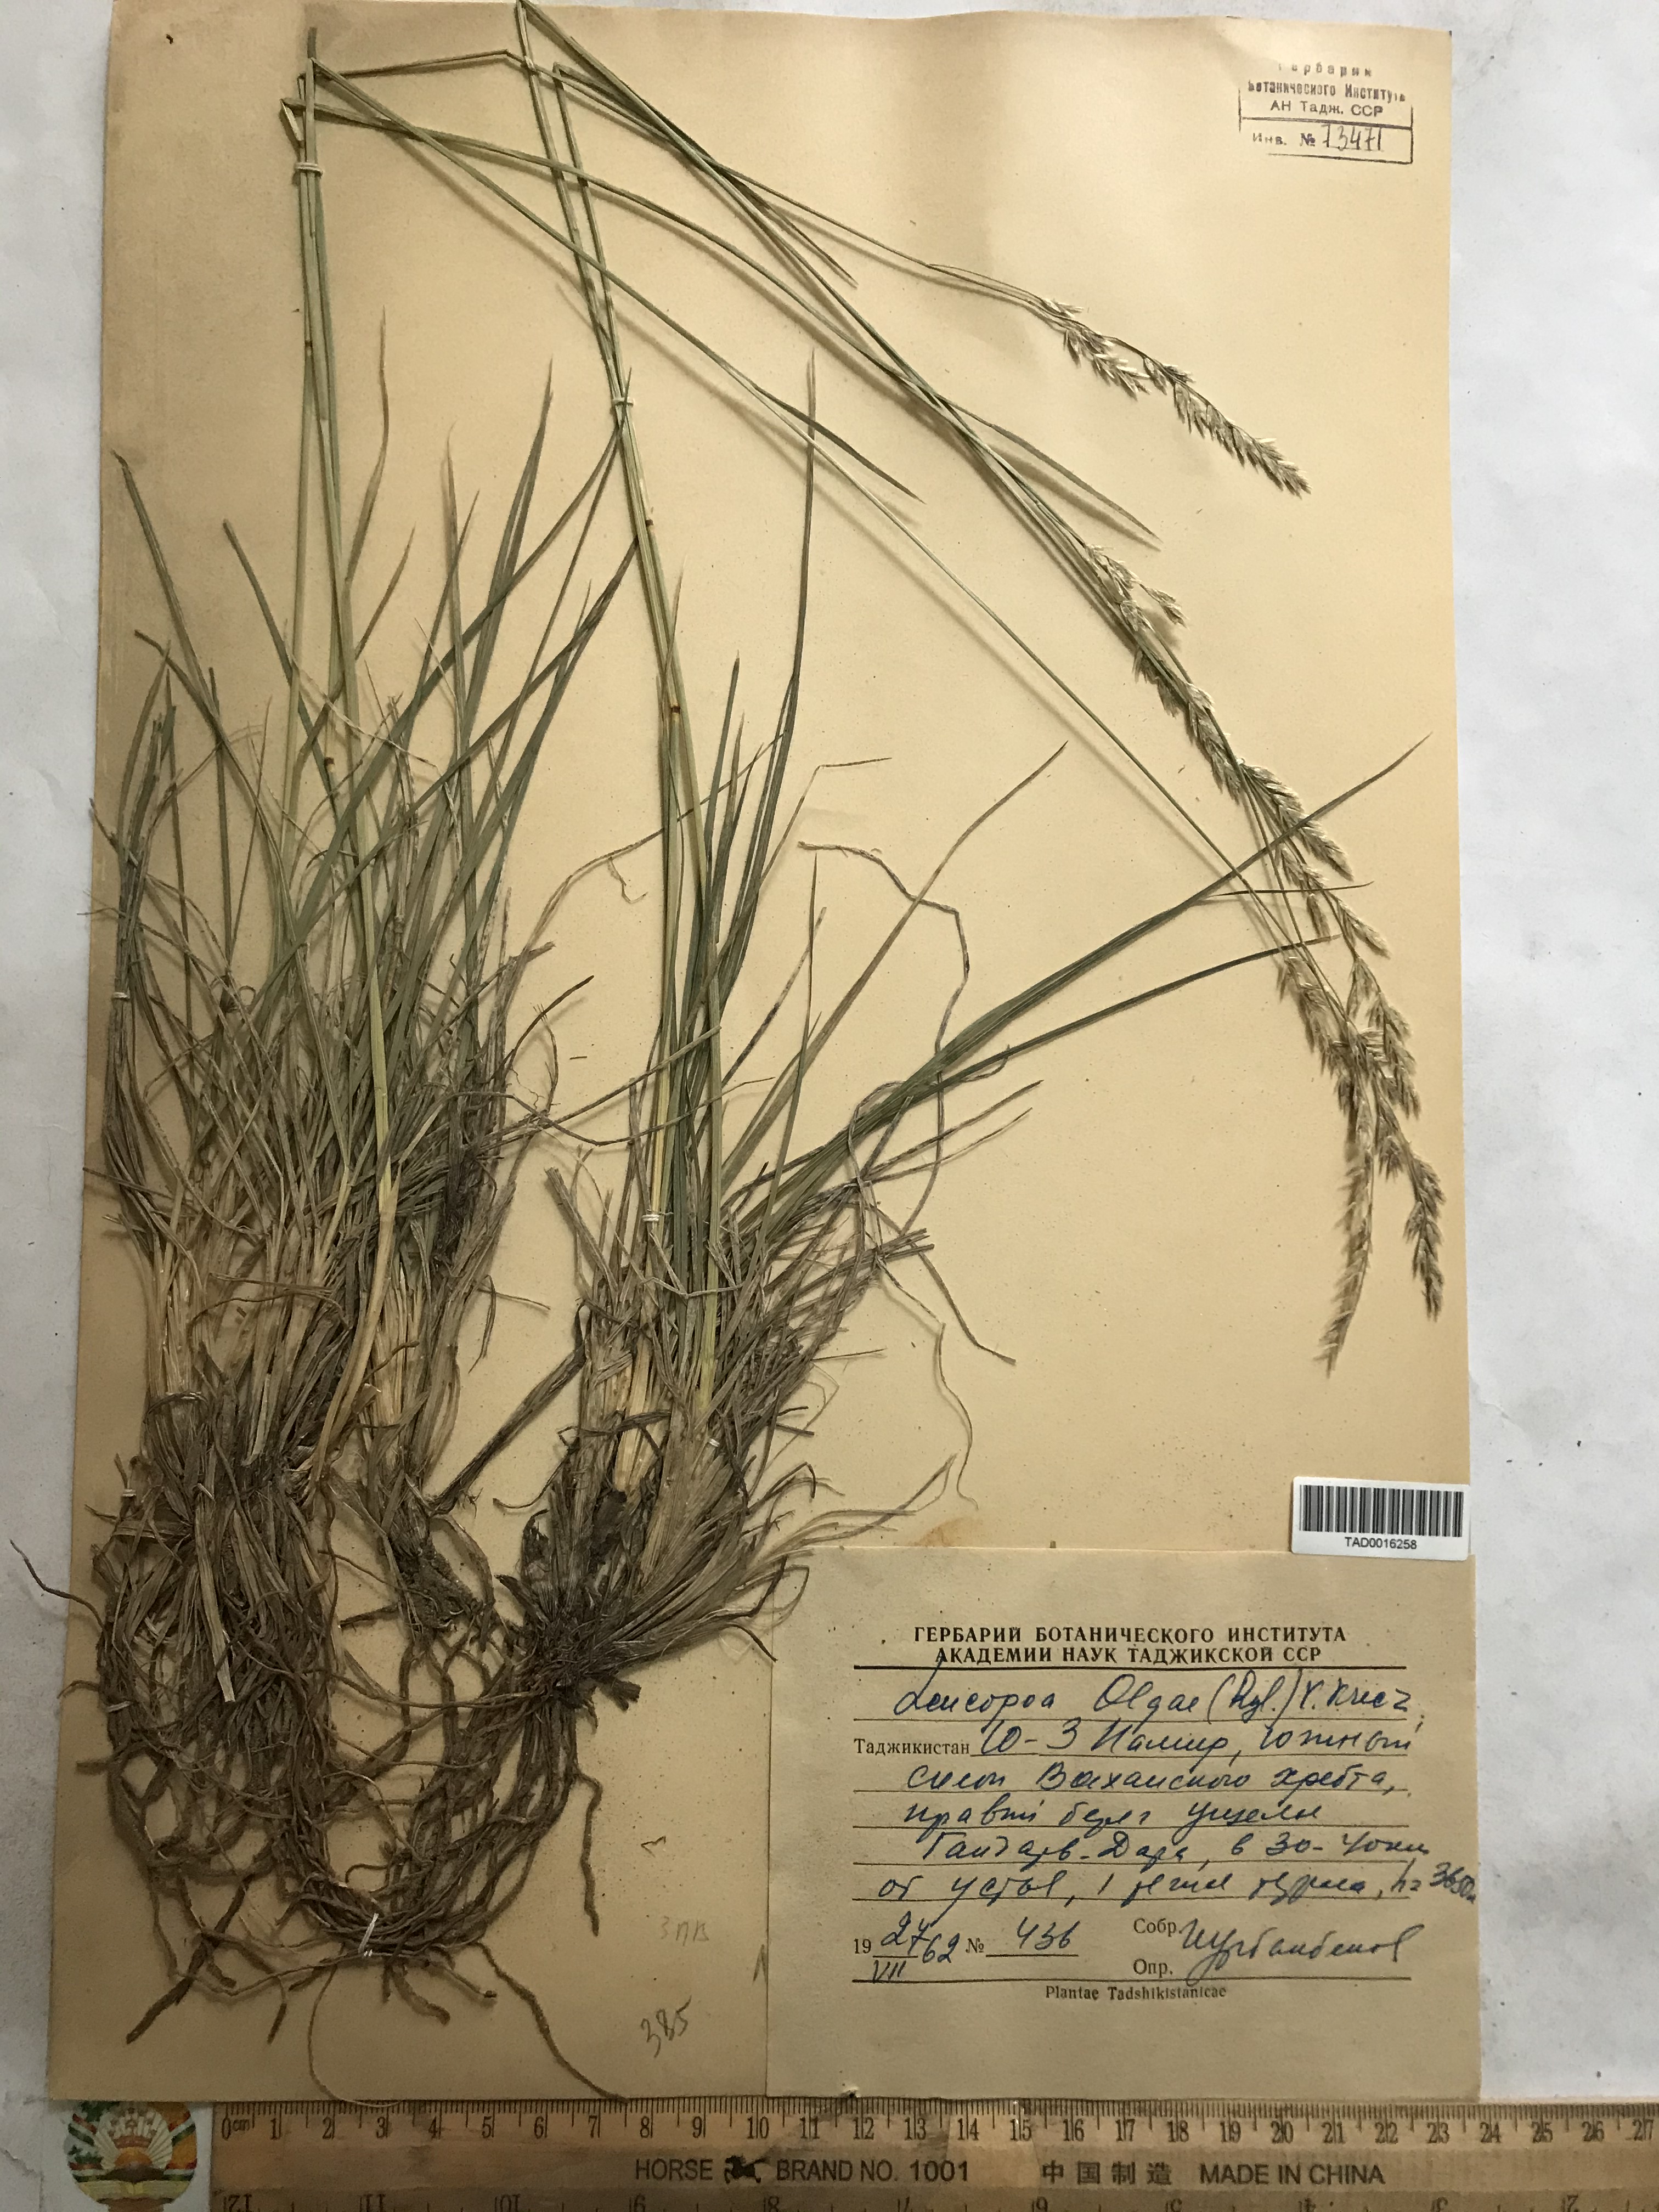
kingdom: Plantae
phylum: Tracheophyta
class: Liliopsida
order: Poales
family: Poaceae
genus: Festuca
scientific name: Festuca
